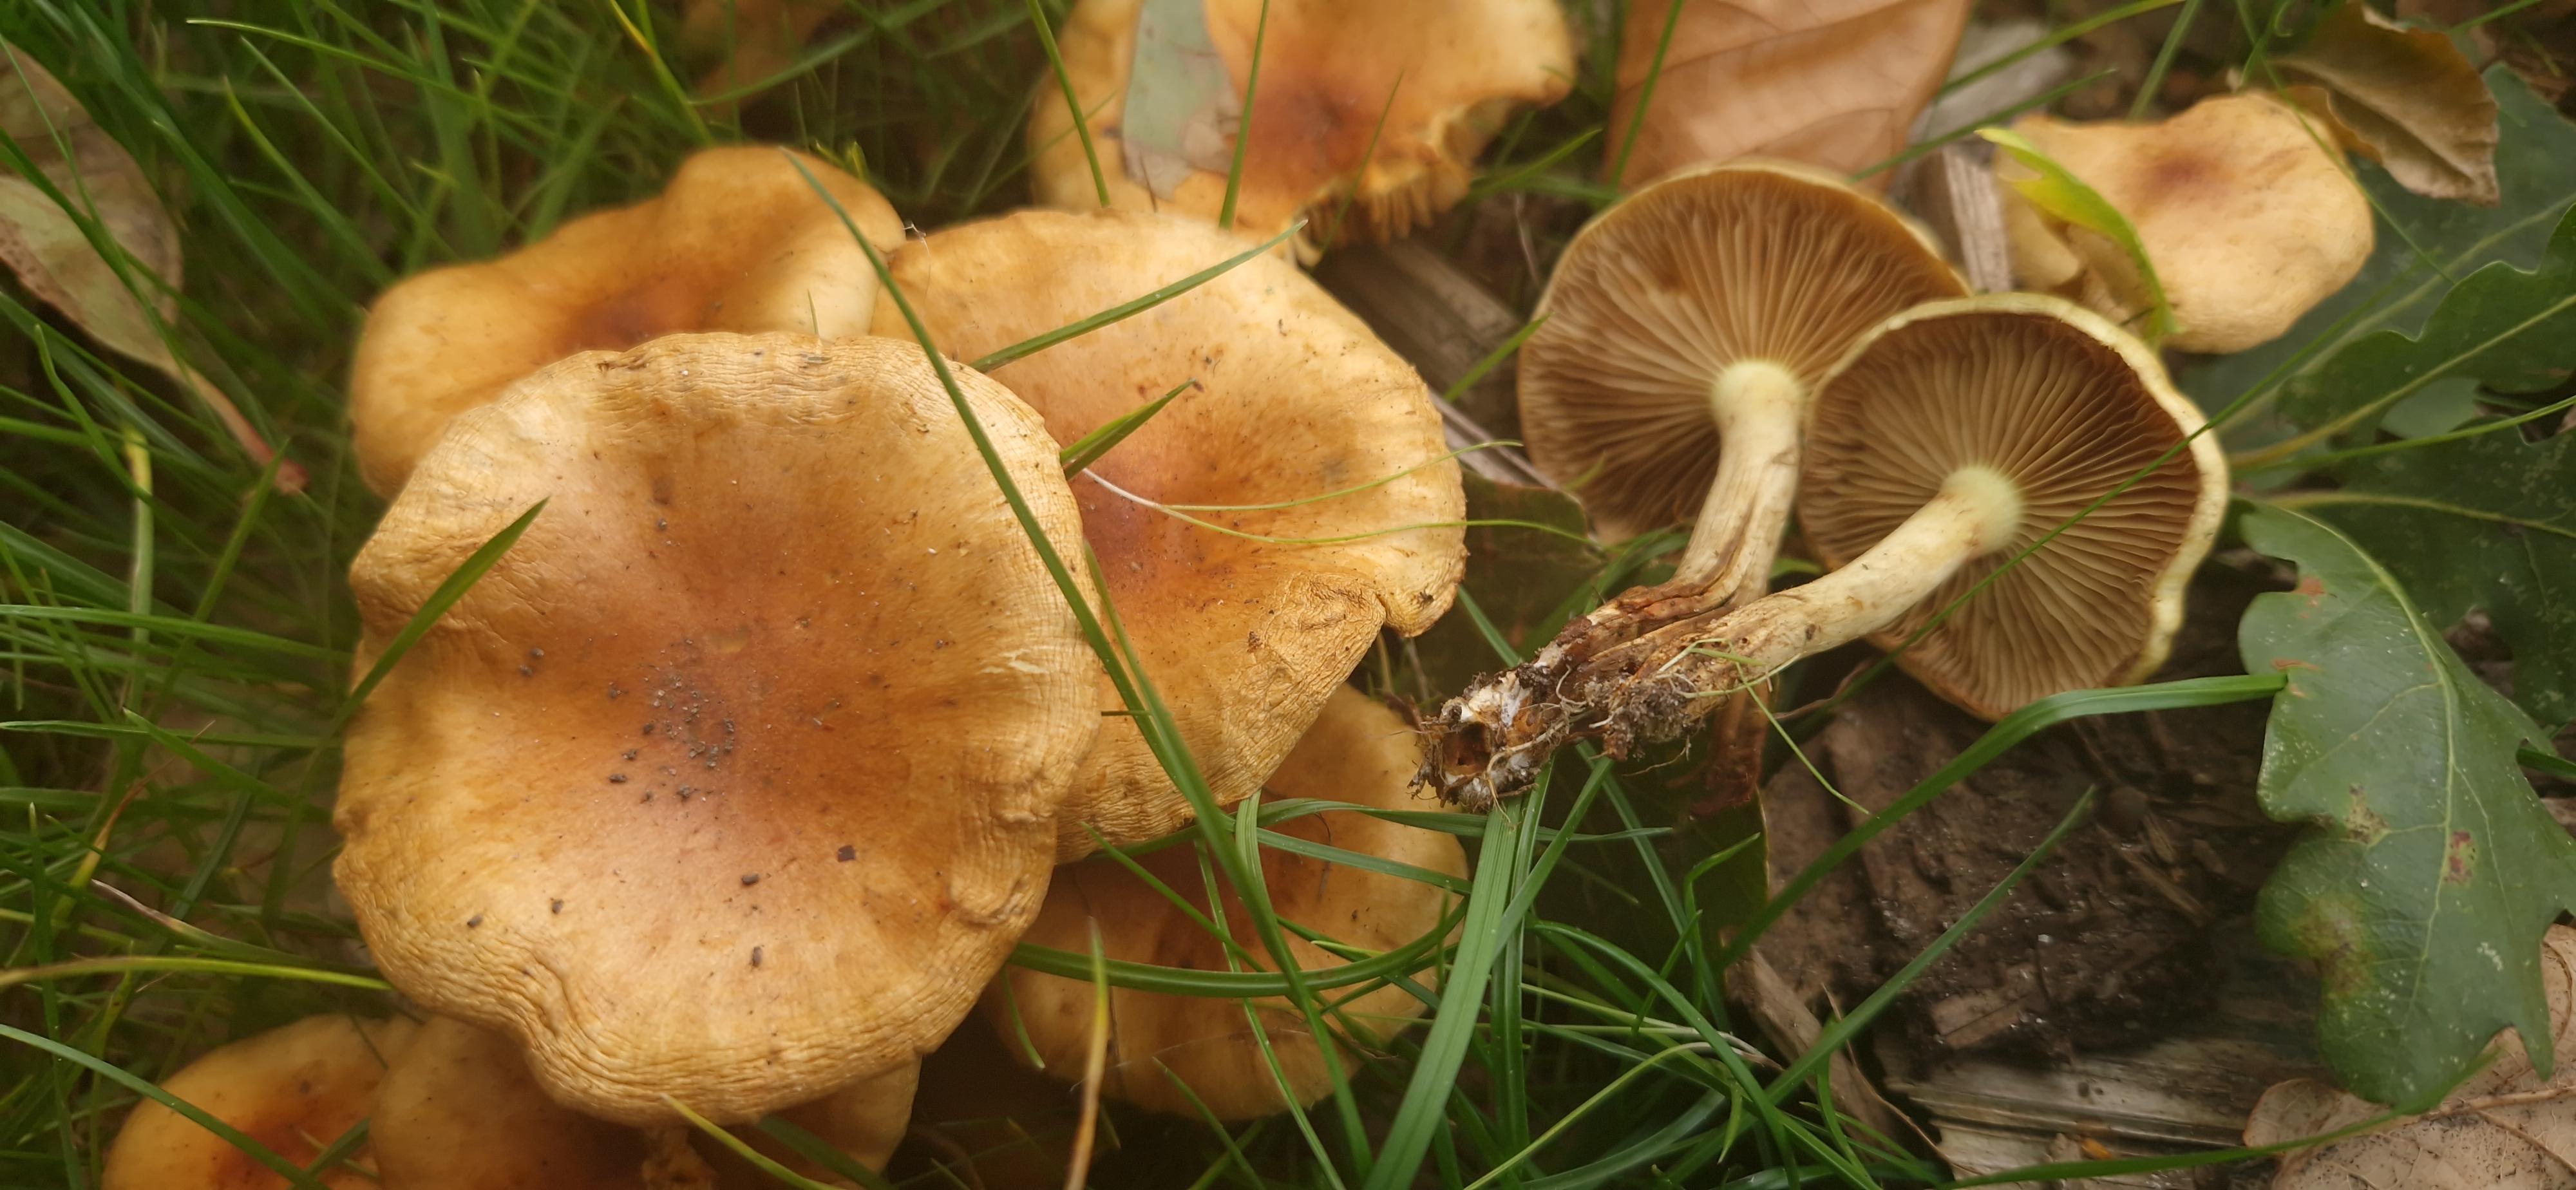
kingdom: Fungi
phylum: Basidiomycota
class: Agaricomycetes
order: Agaricales
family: Strophariaceae
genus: Pholiota
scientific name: Pholiota
